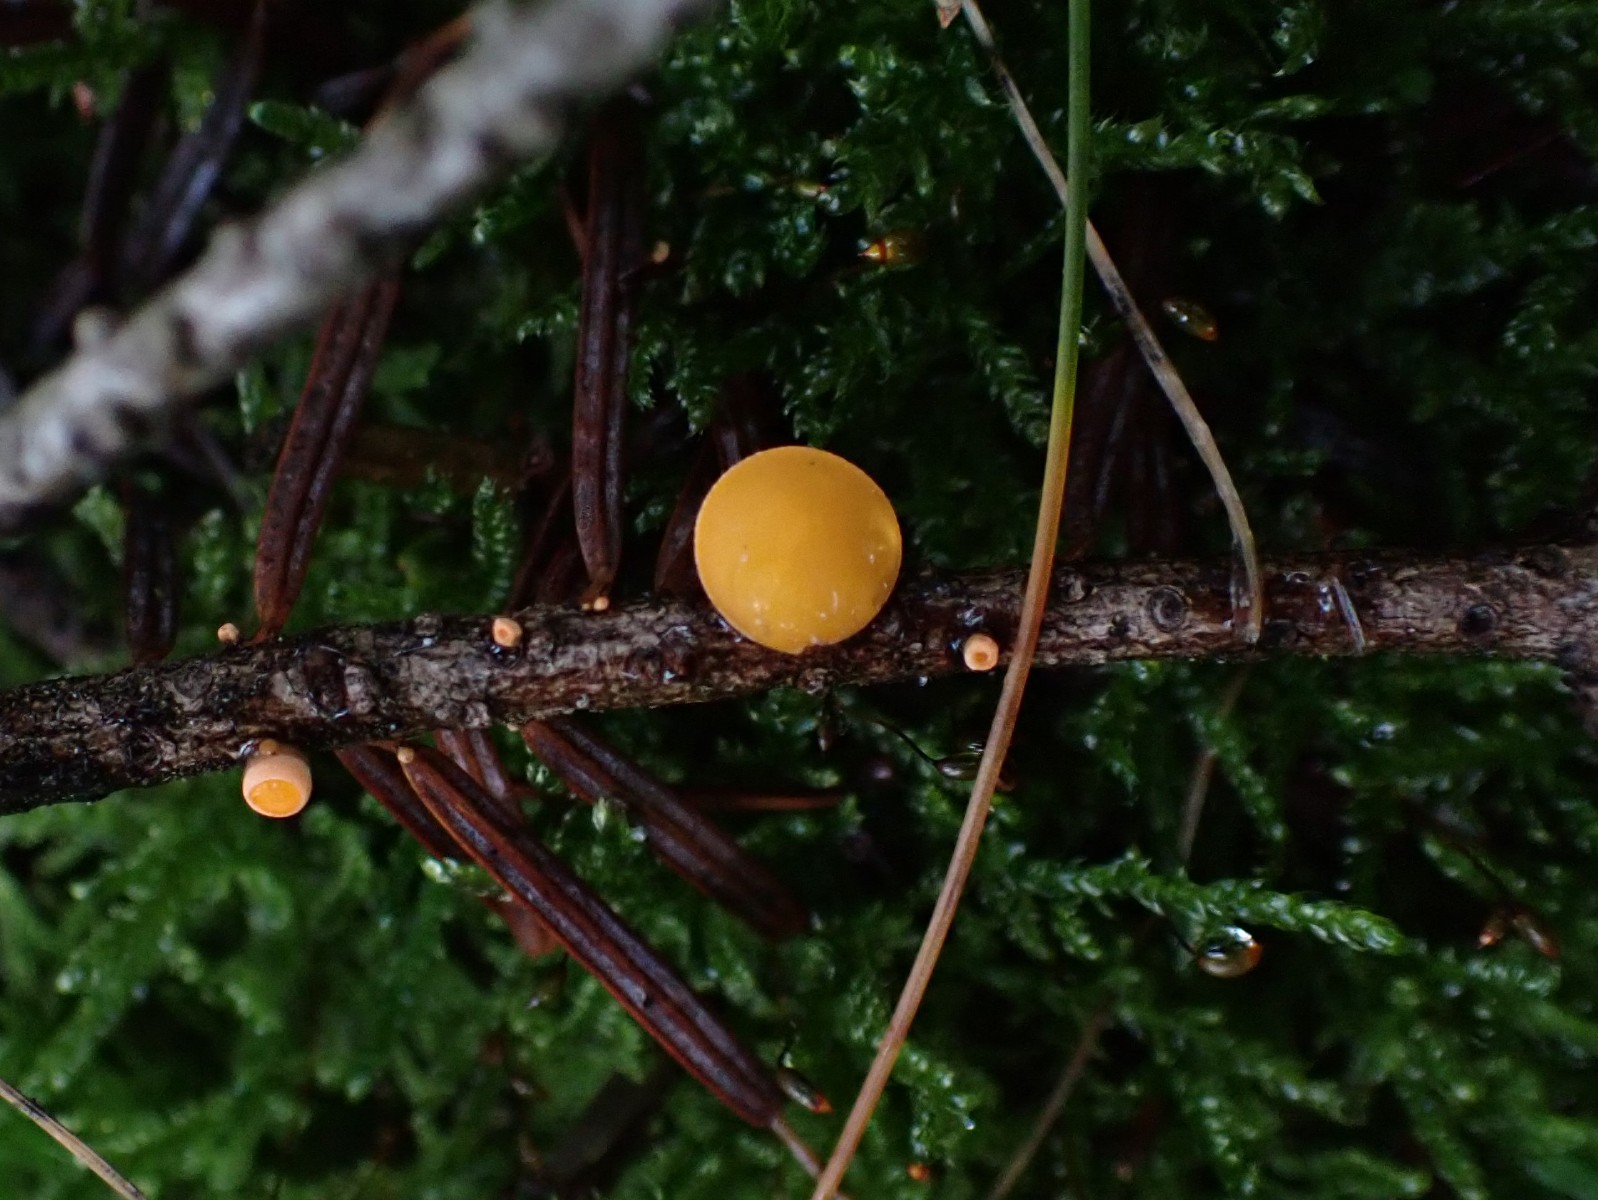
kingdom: Fungi
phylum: Ascomycota
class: Pezizomycetes
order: Pezizales
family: Sarcoscyphaceae
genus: Pithya
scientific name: Pithya vulgaris
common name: stor dukatbæger
